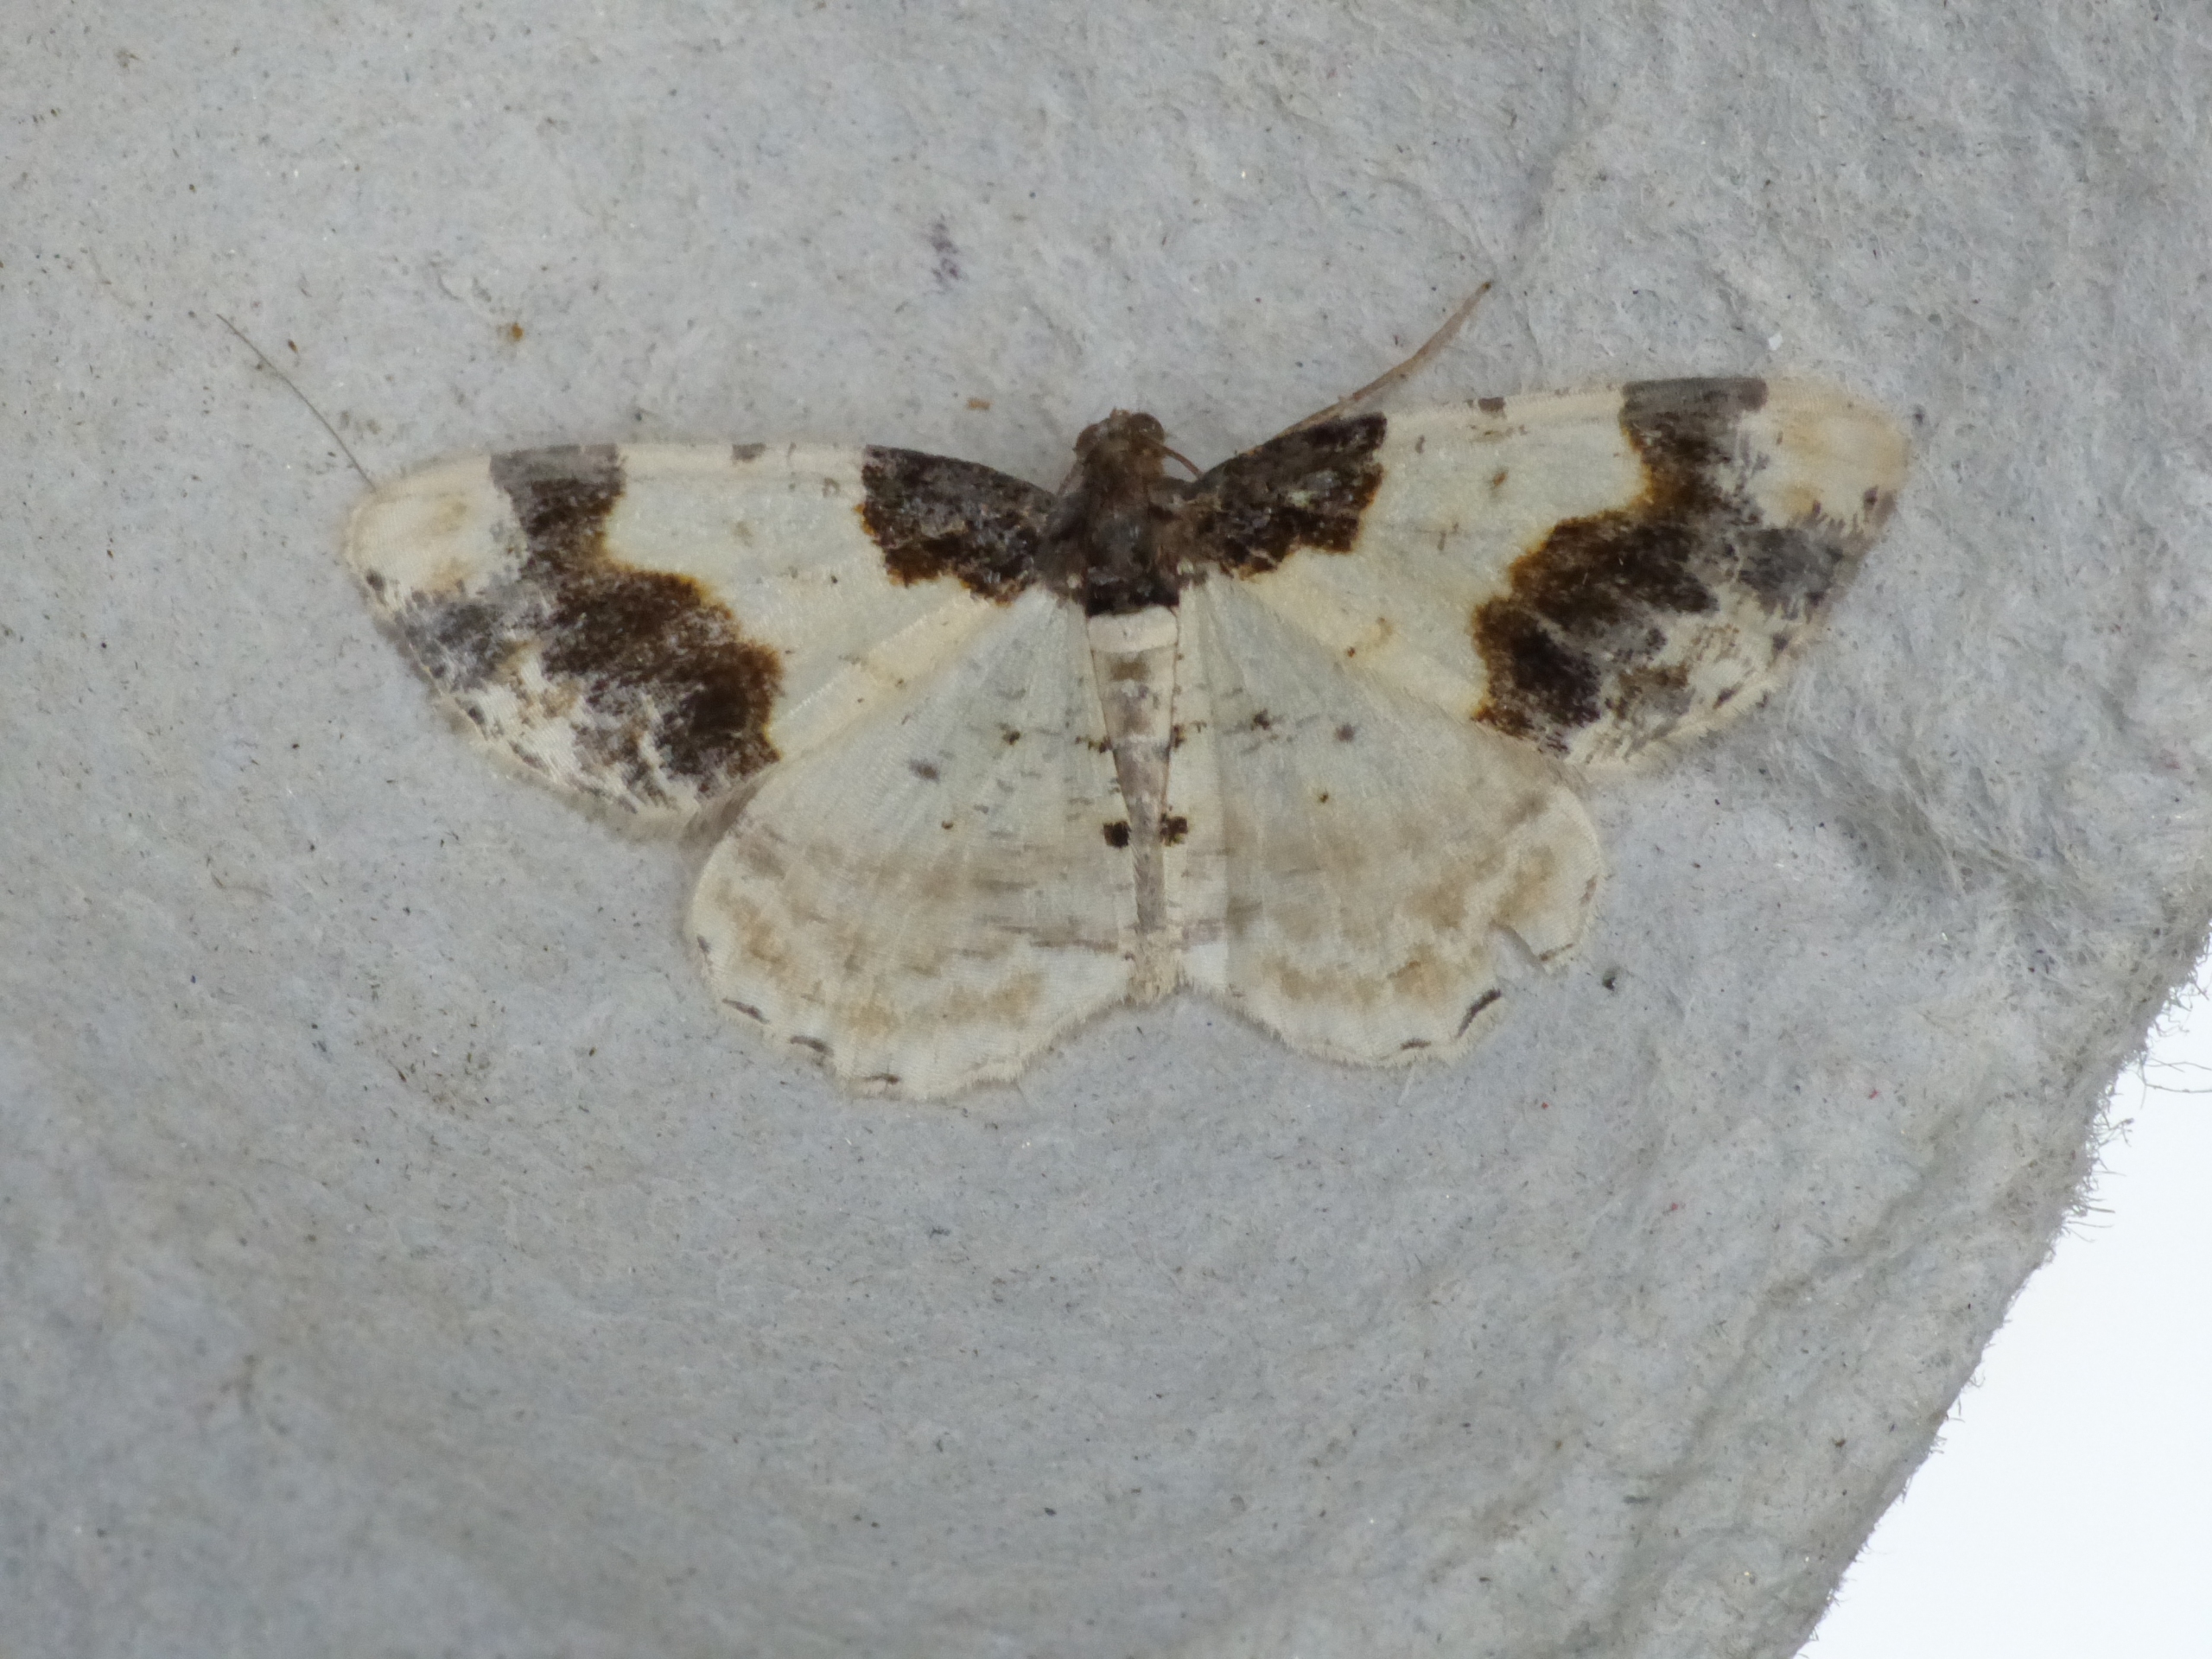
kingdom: Animalia
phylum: Arthropoda
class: Insecta
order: Lepidoptera
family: Geometridae
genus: Ligdia
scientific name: Ligdia adustata
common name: Benvedmåler
